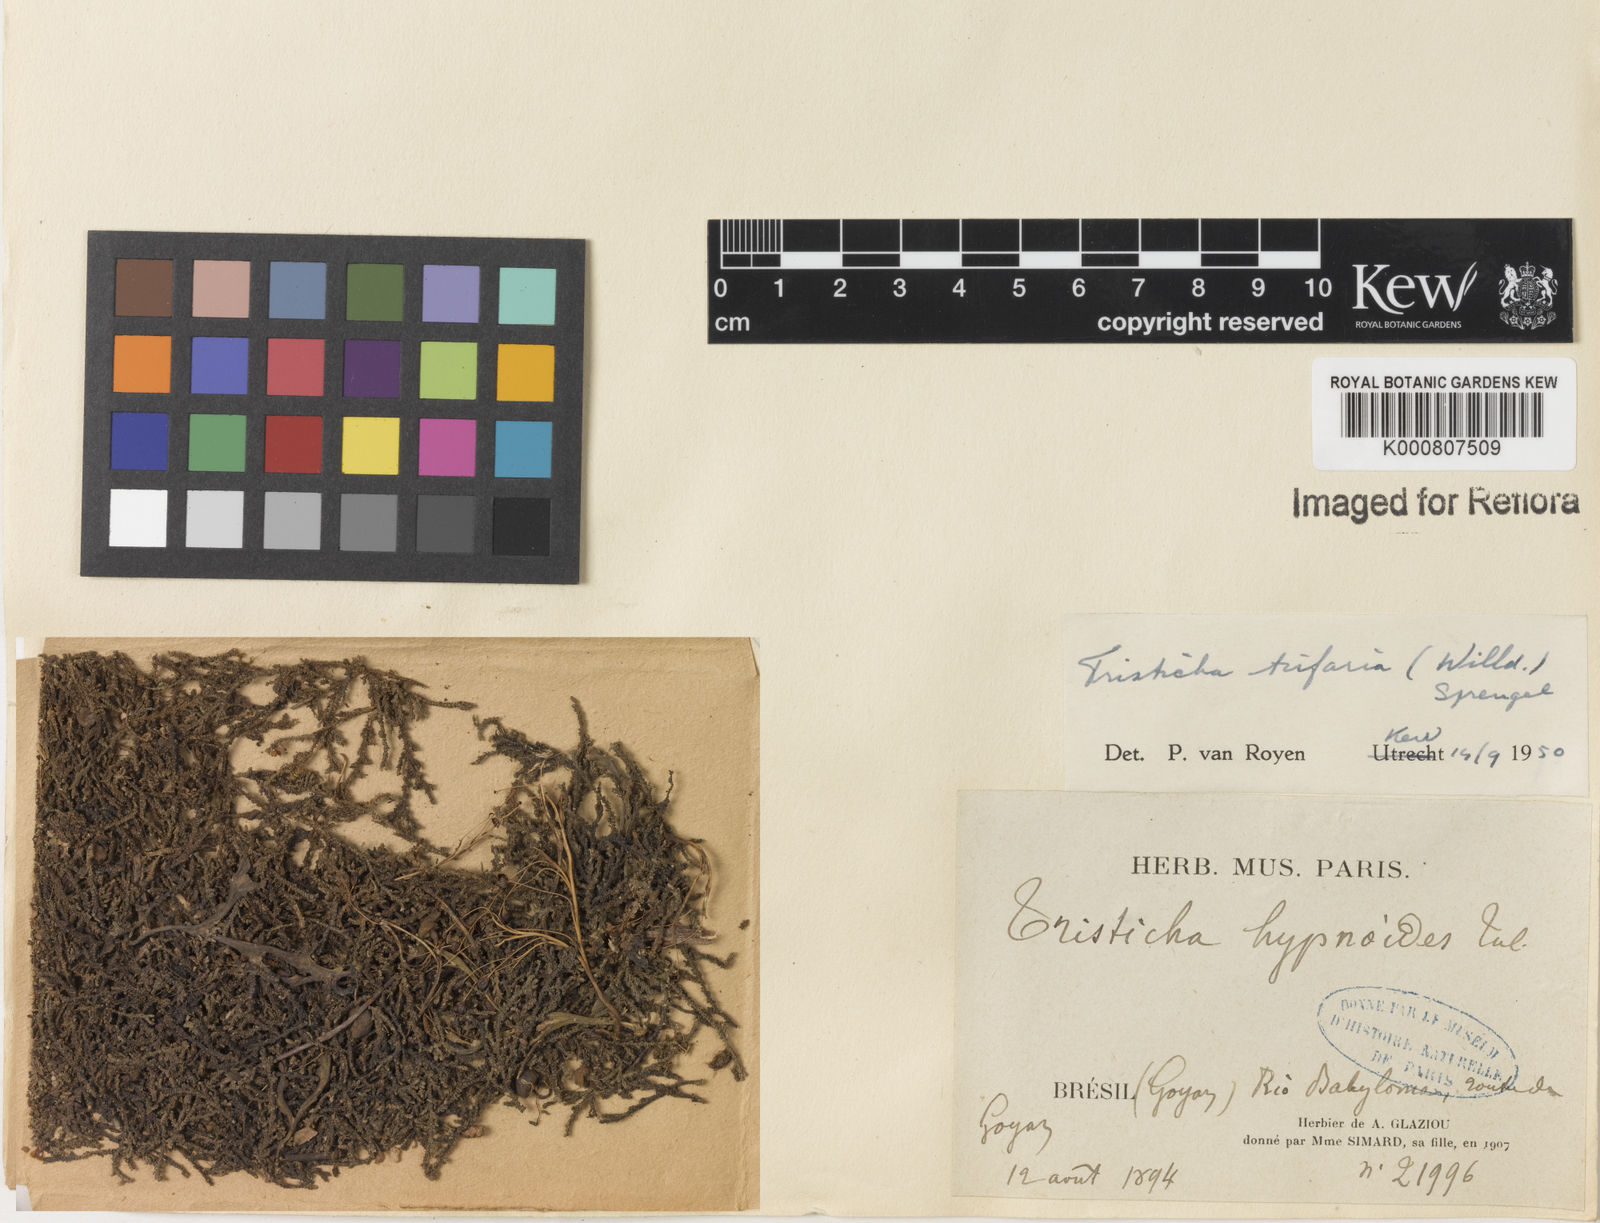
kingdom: Plantae
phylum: Tracheophyta
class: Magnoliopsida
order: Malpighiales
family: Podostemaceae
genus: Tristicha
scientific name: Tristicha trifaria
